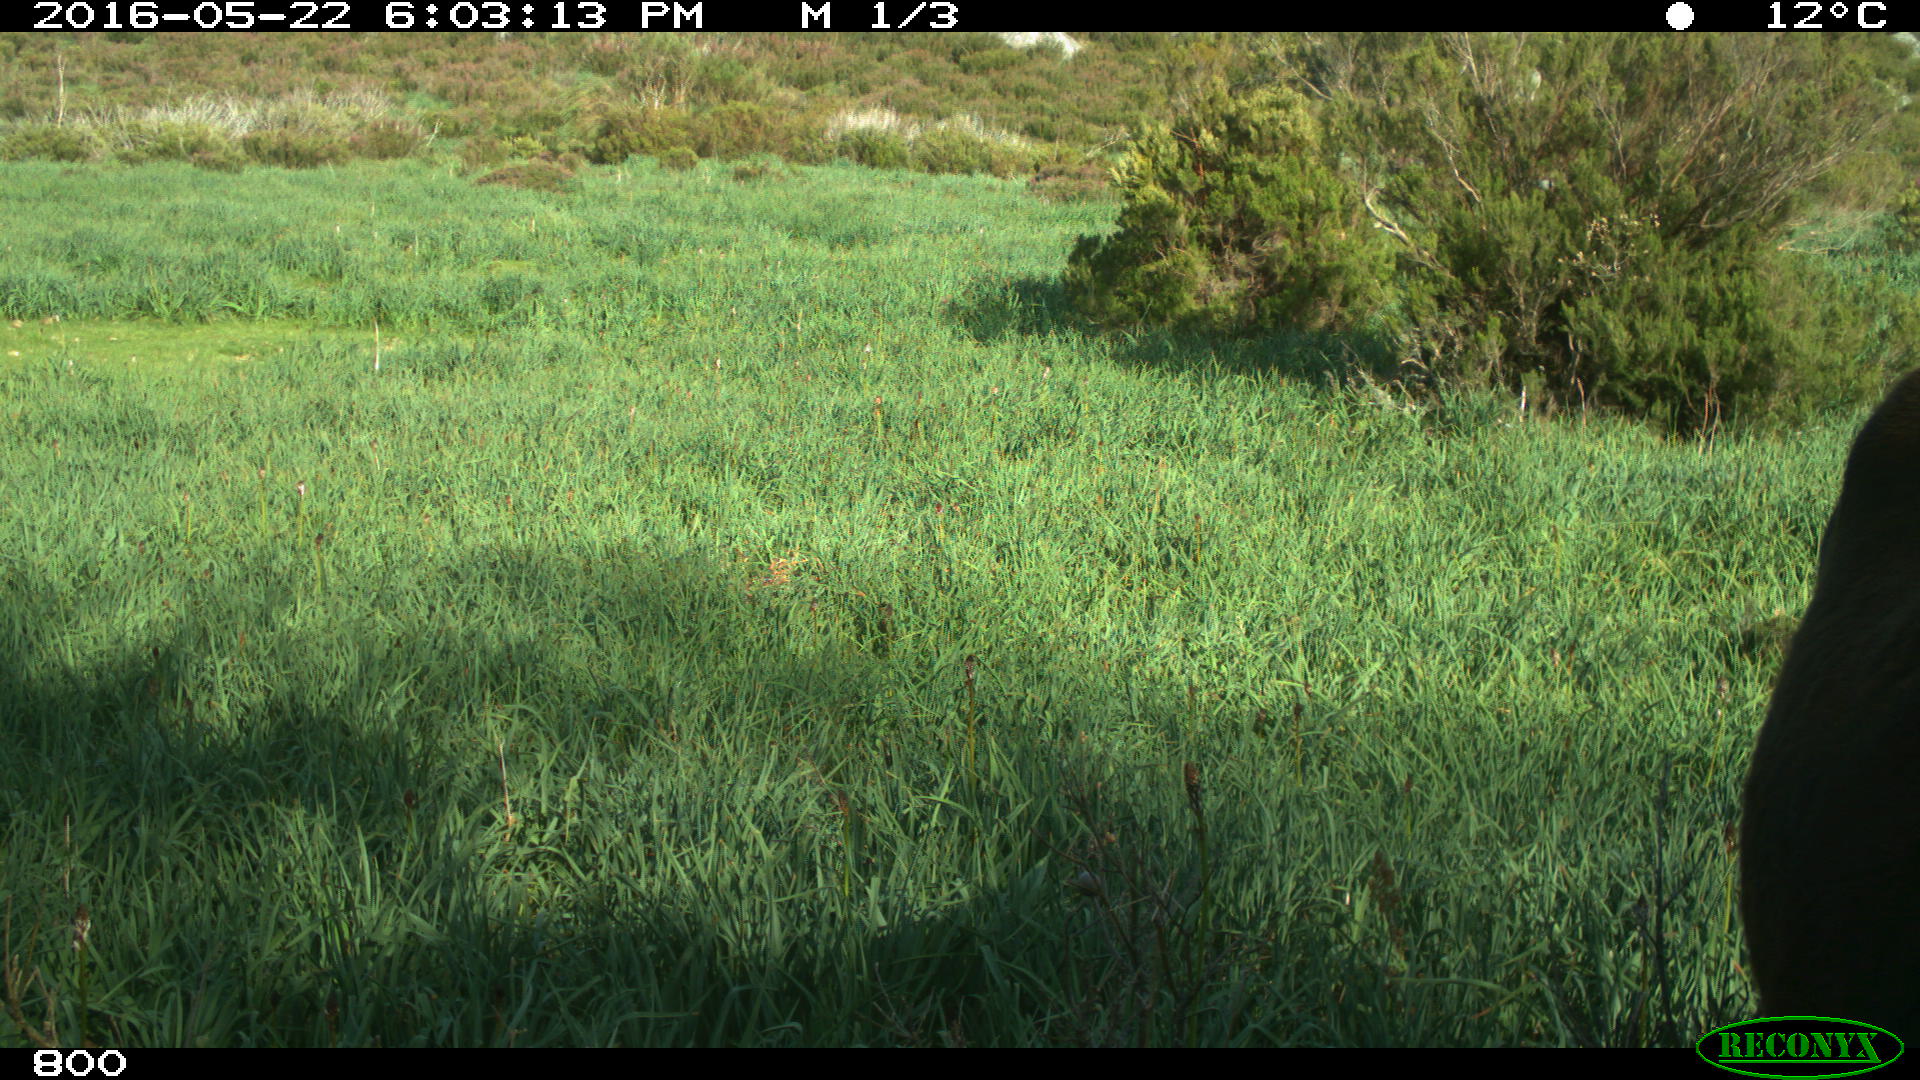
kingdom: Animalia
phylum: Chordata
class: Mammalia
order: Artiodactyla
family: Bovidae
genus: Bos
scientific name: Bos taurus
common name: Domesticated cattle
